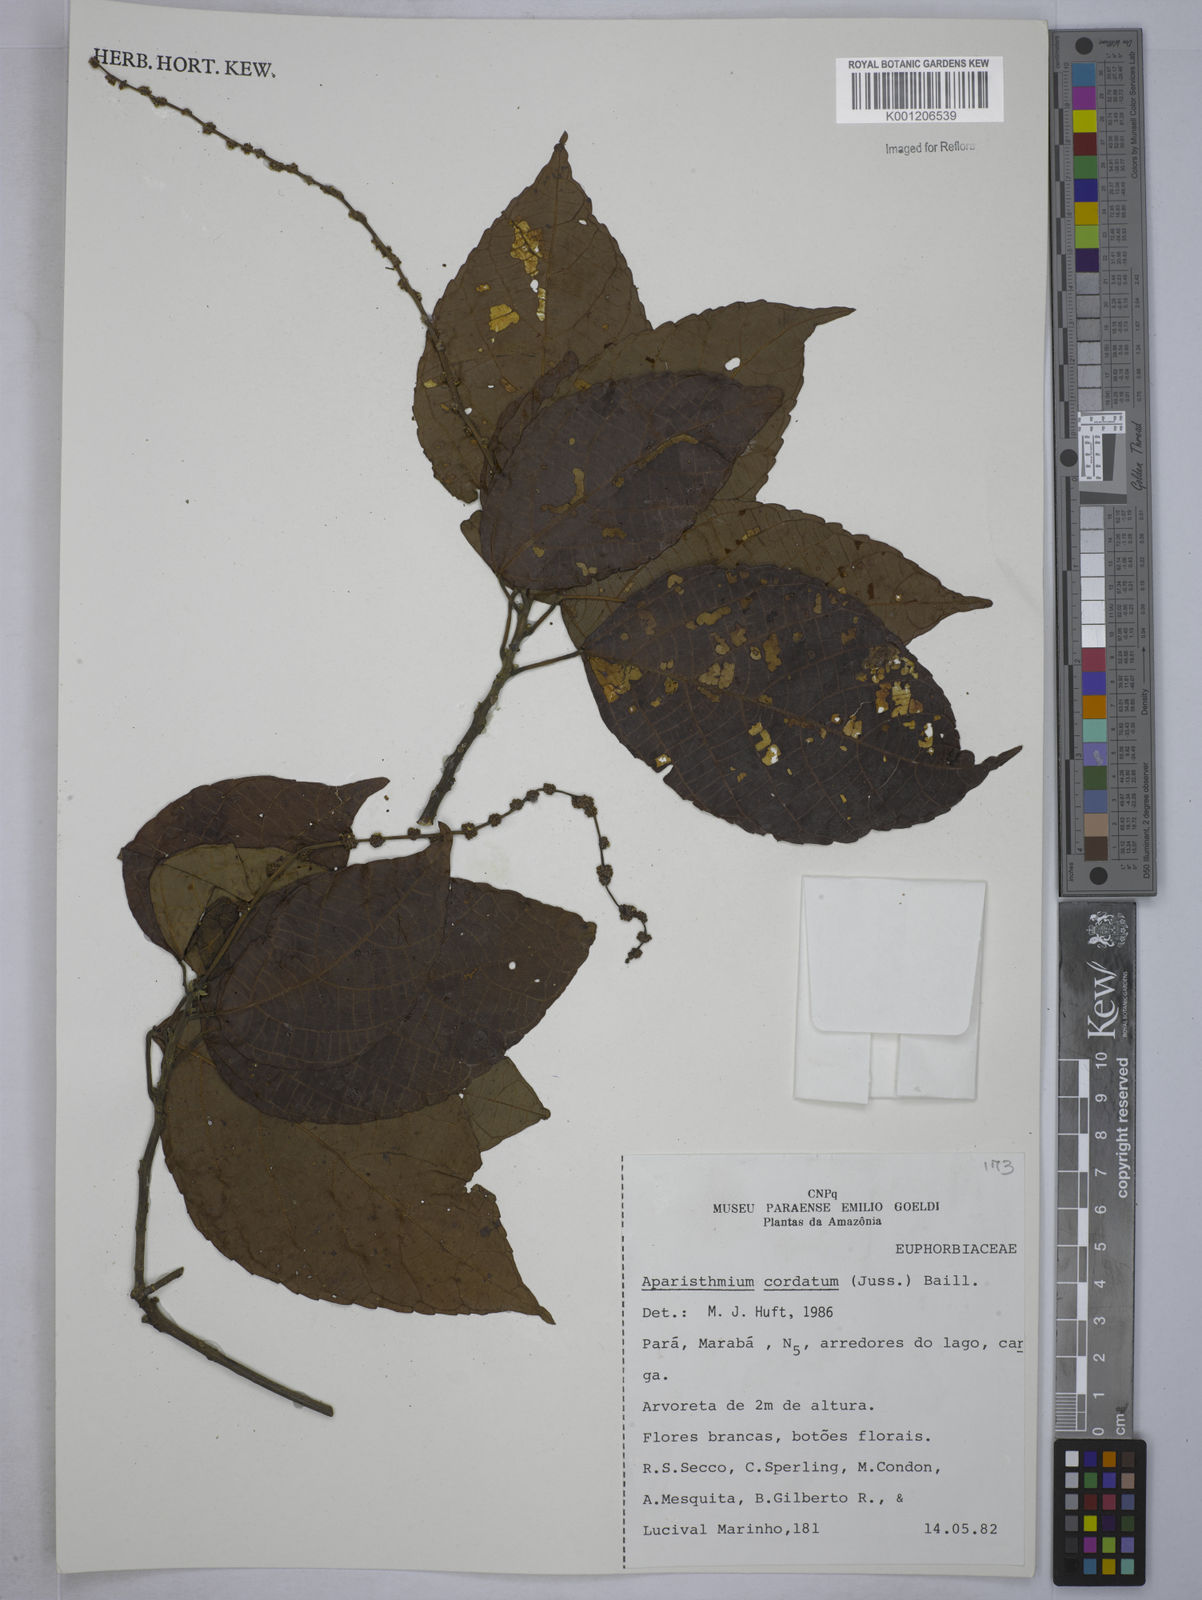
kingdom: Plantae
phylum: Tracheophyta
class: Magnoliopsida
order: Malpighiales
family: Euphorbiaceae
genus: Aparisthmium
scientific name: Aparisthmium cordatum
